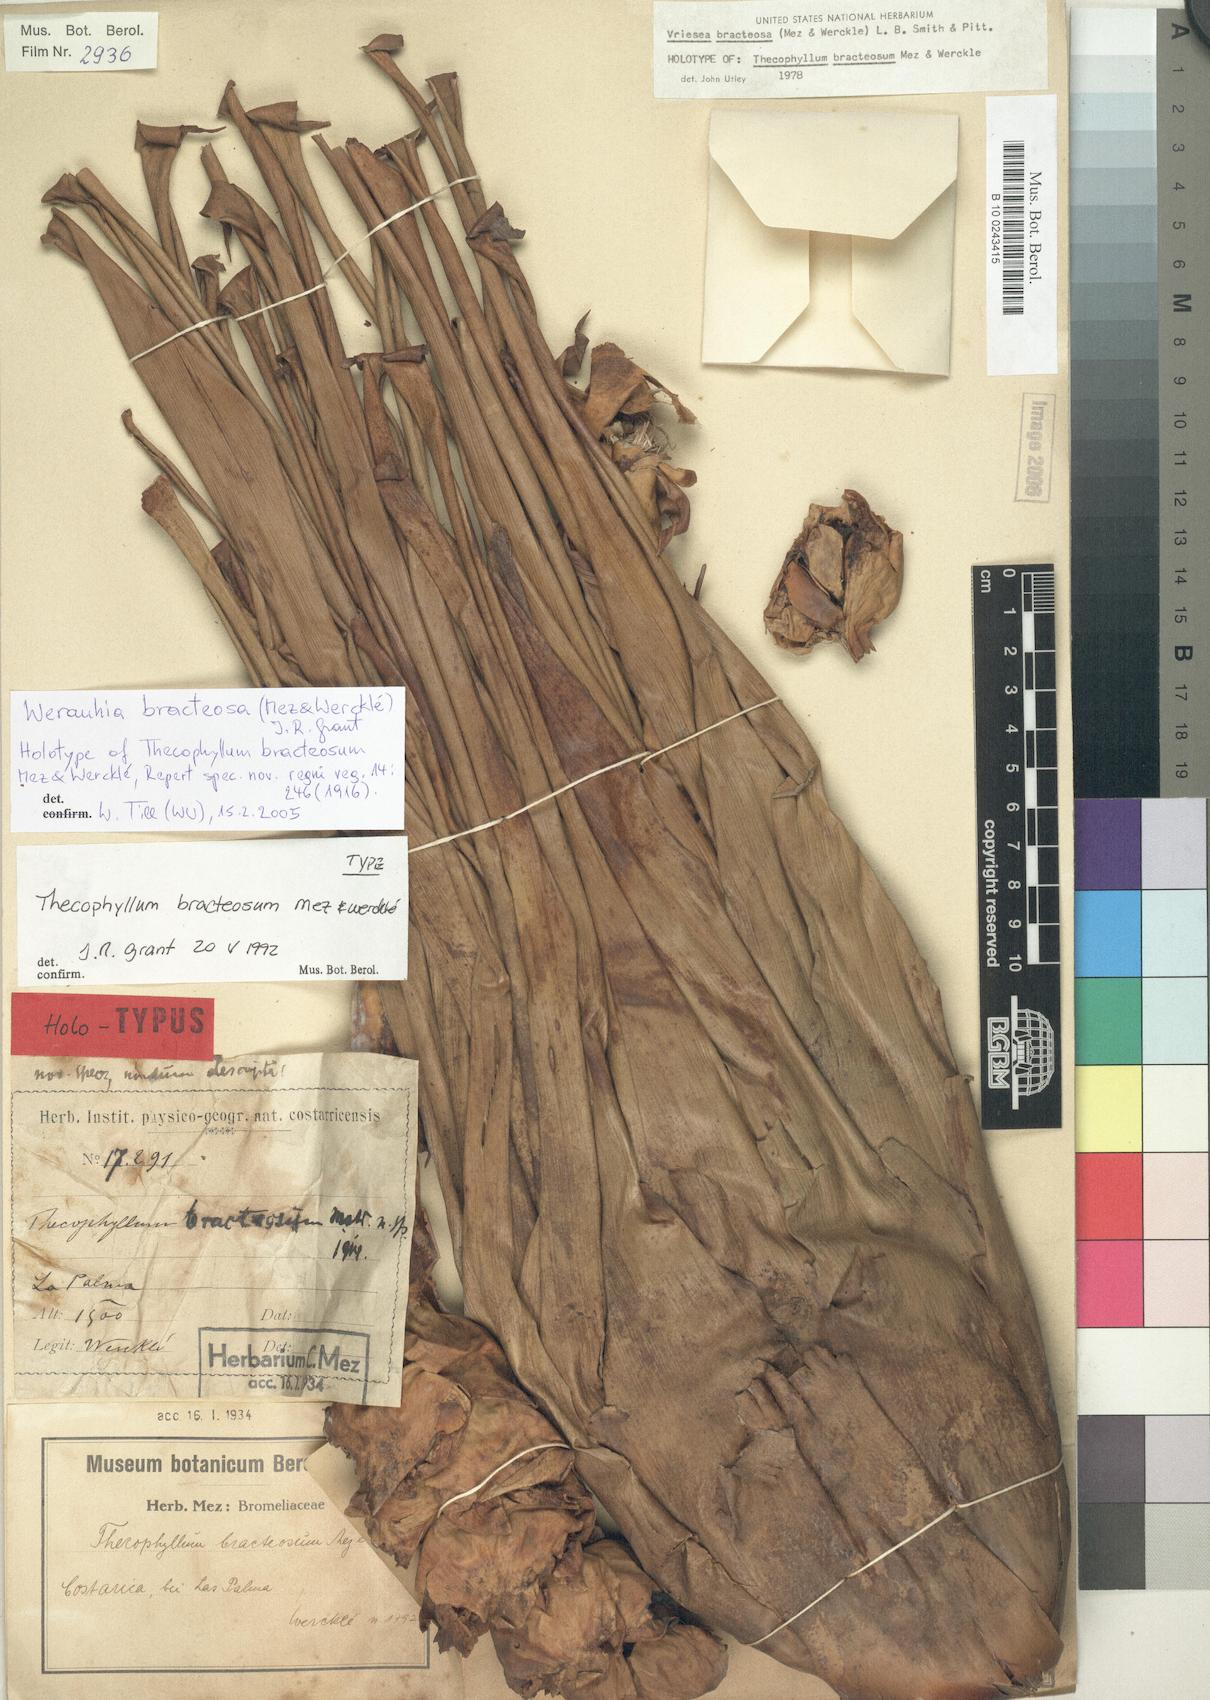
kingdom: Plantae
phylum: Tracheophyta
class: Liliopsida
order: Poales
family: Bromeliaceae
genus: Werauhia
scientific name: Werauhia bracteosa
